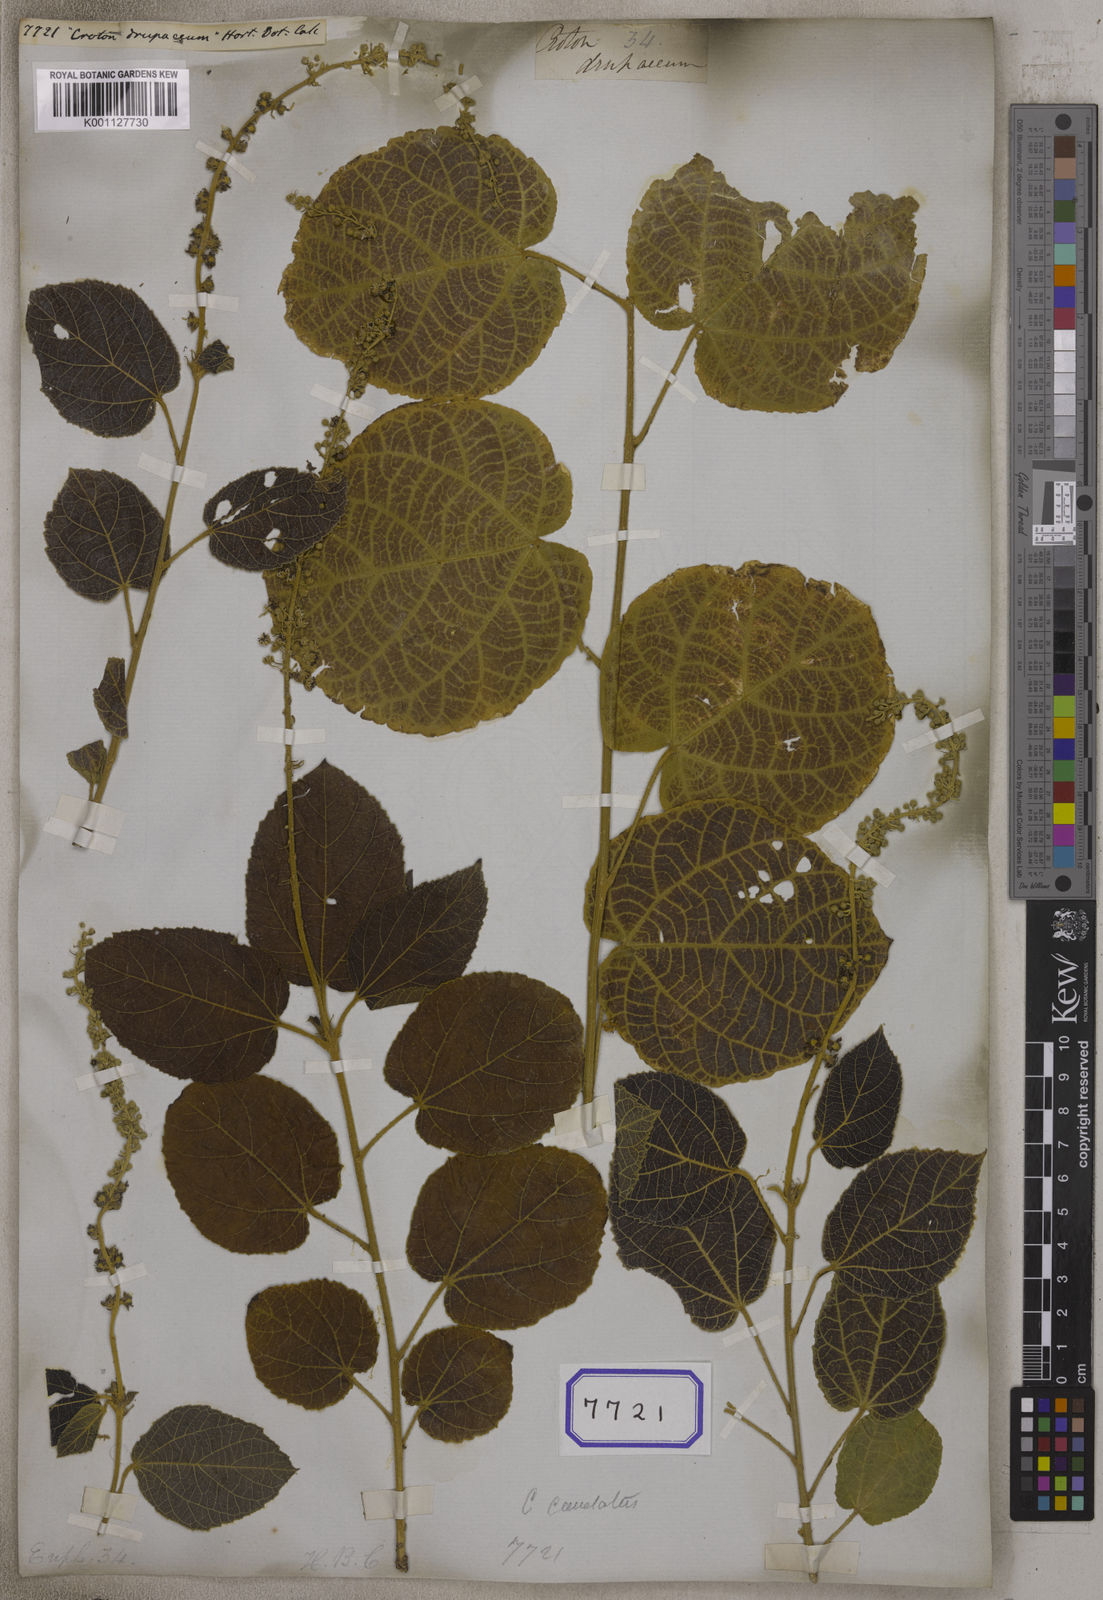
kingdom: Plantae
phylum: Tracheophyta
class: Magnoliopsida
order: Malpighiales
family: Euphorbiaceae
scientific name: Euphorbiaceae
